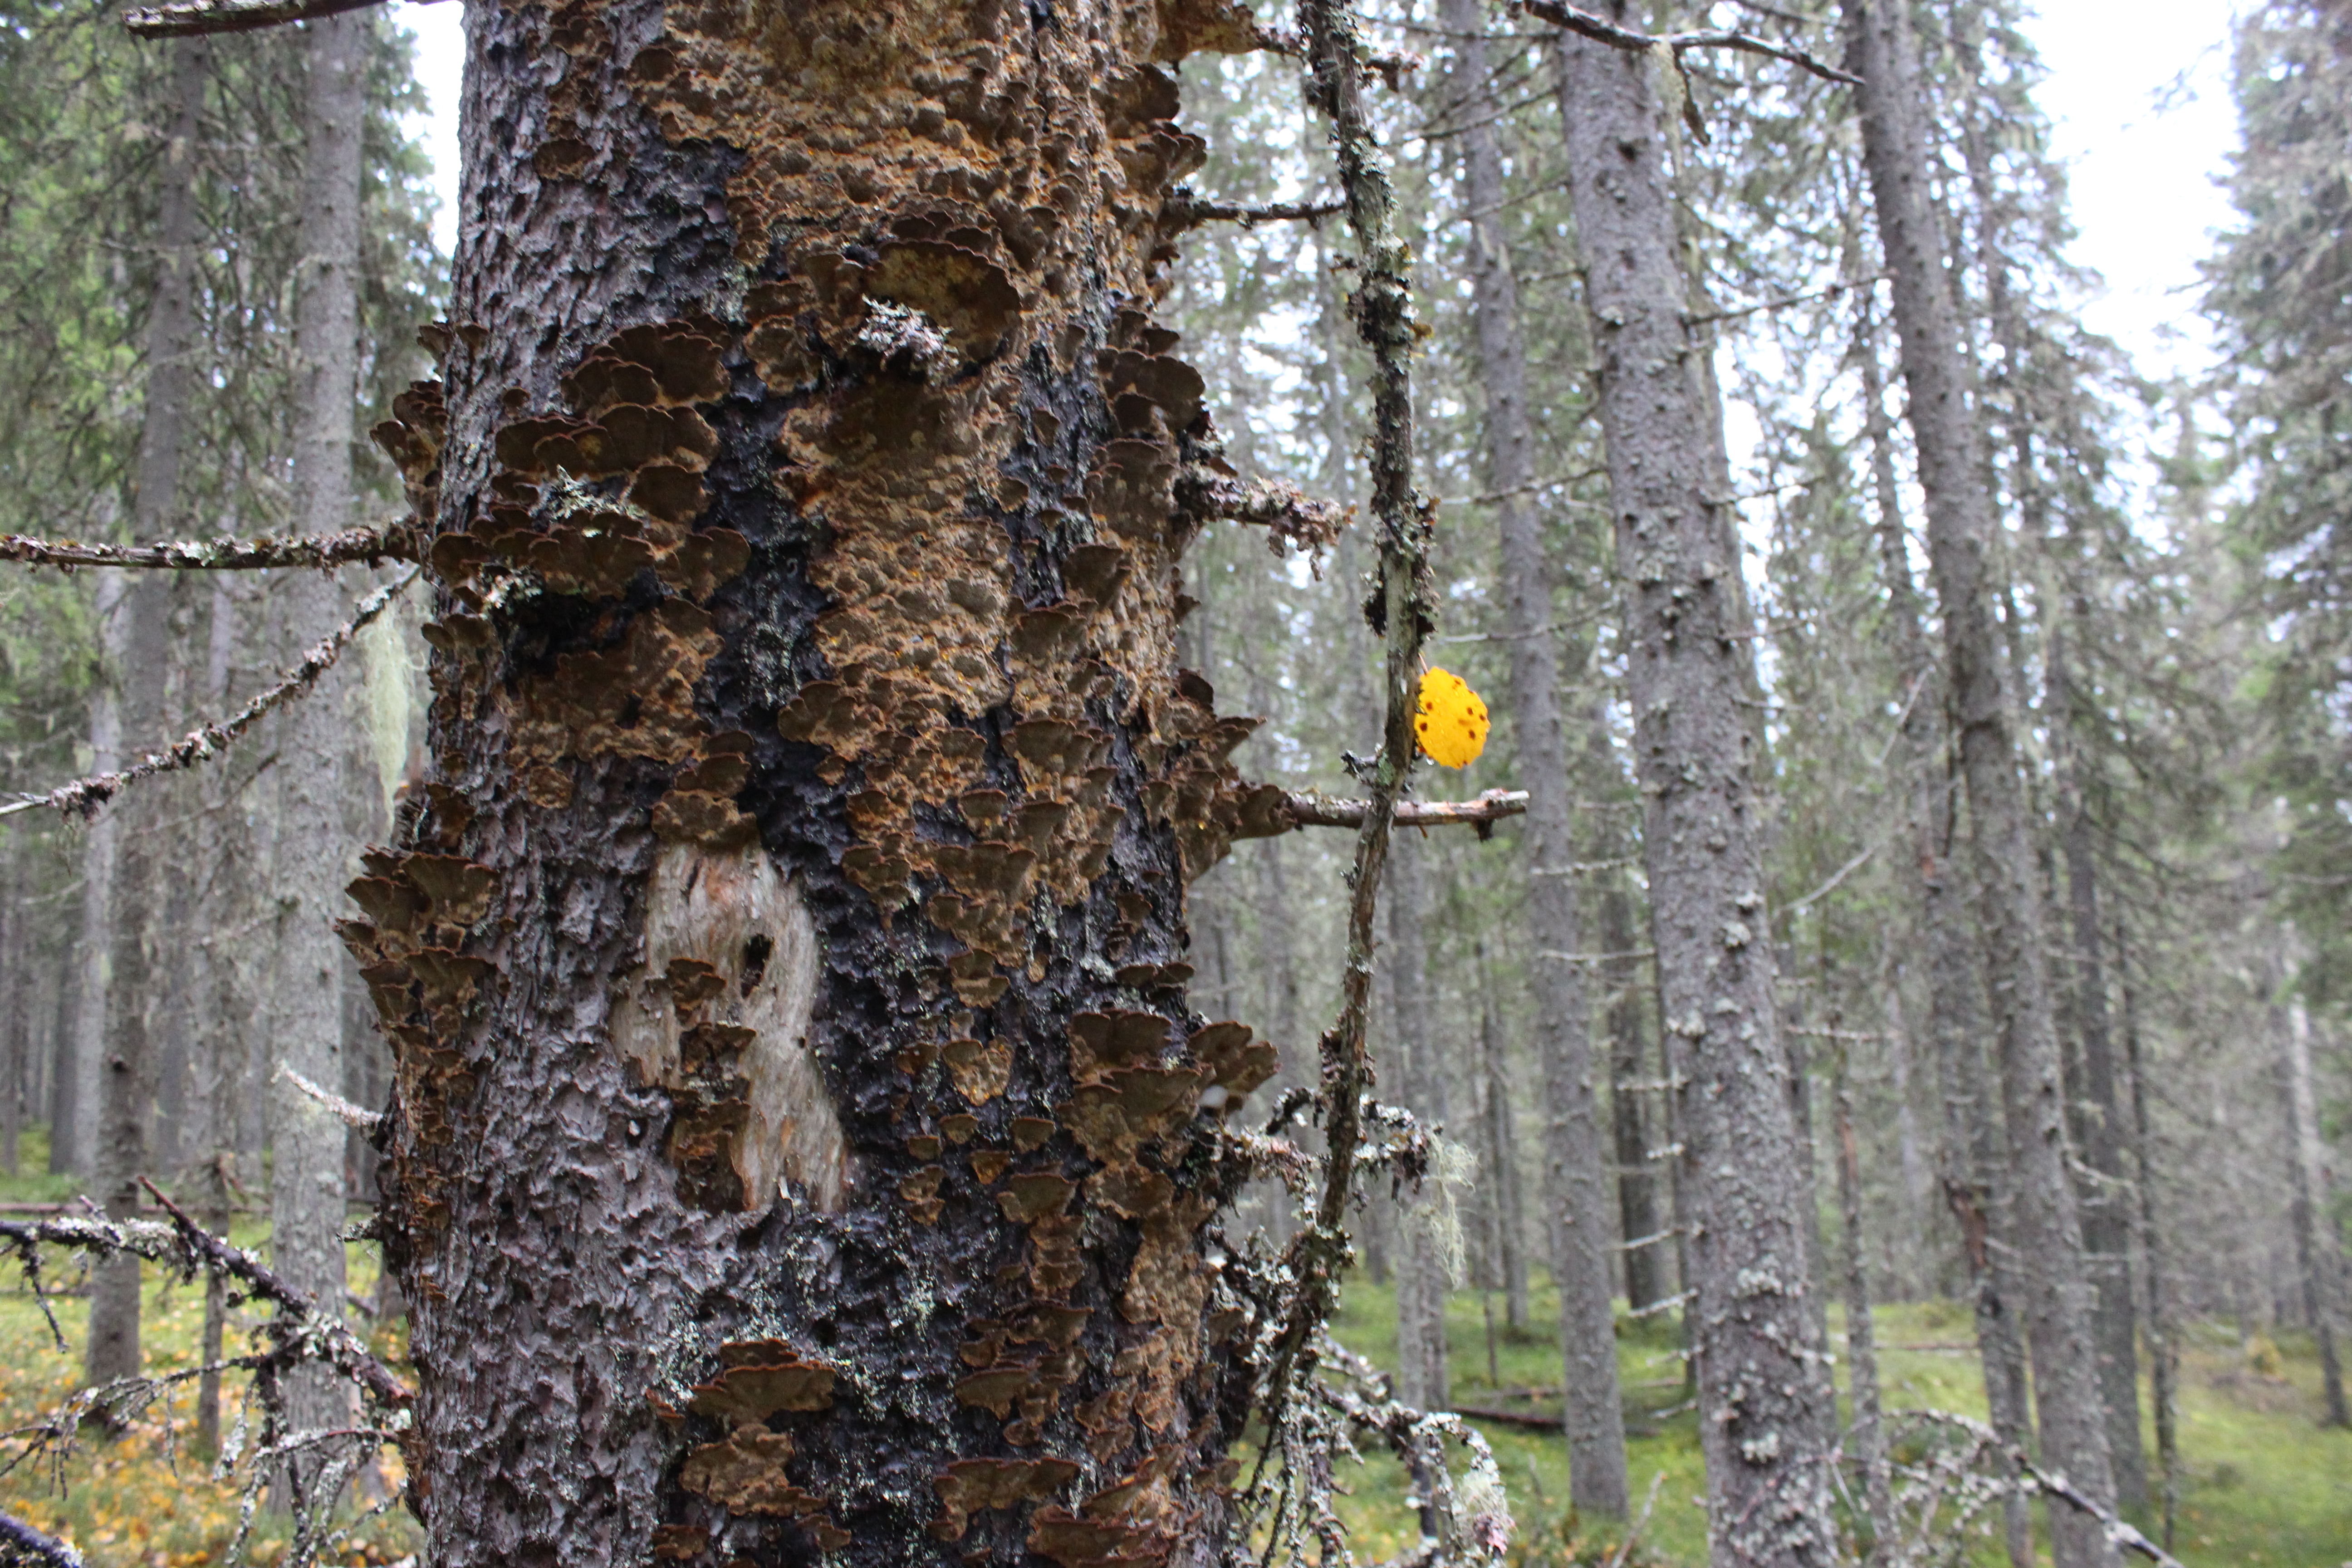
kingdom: Fungi
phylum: Basidiomycota
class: Agaricomycetes
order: Hymenochaetales
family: Hymenochaetaceae
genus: Porodaedalea
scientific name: Porodaedalea abietis
